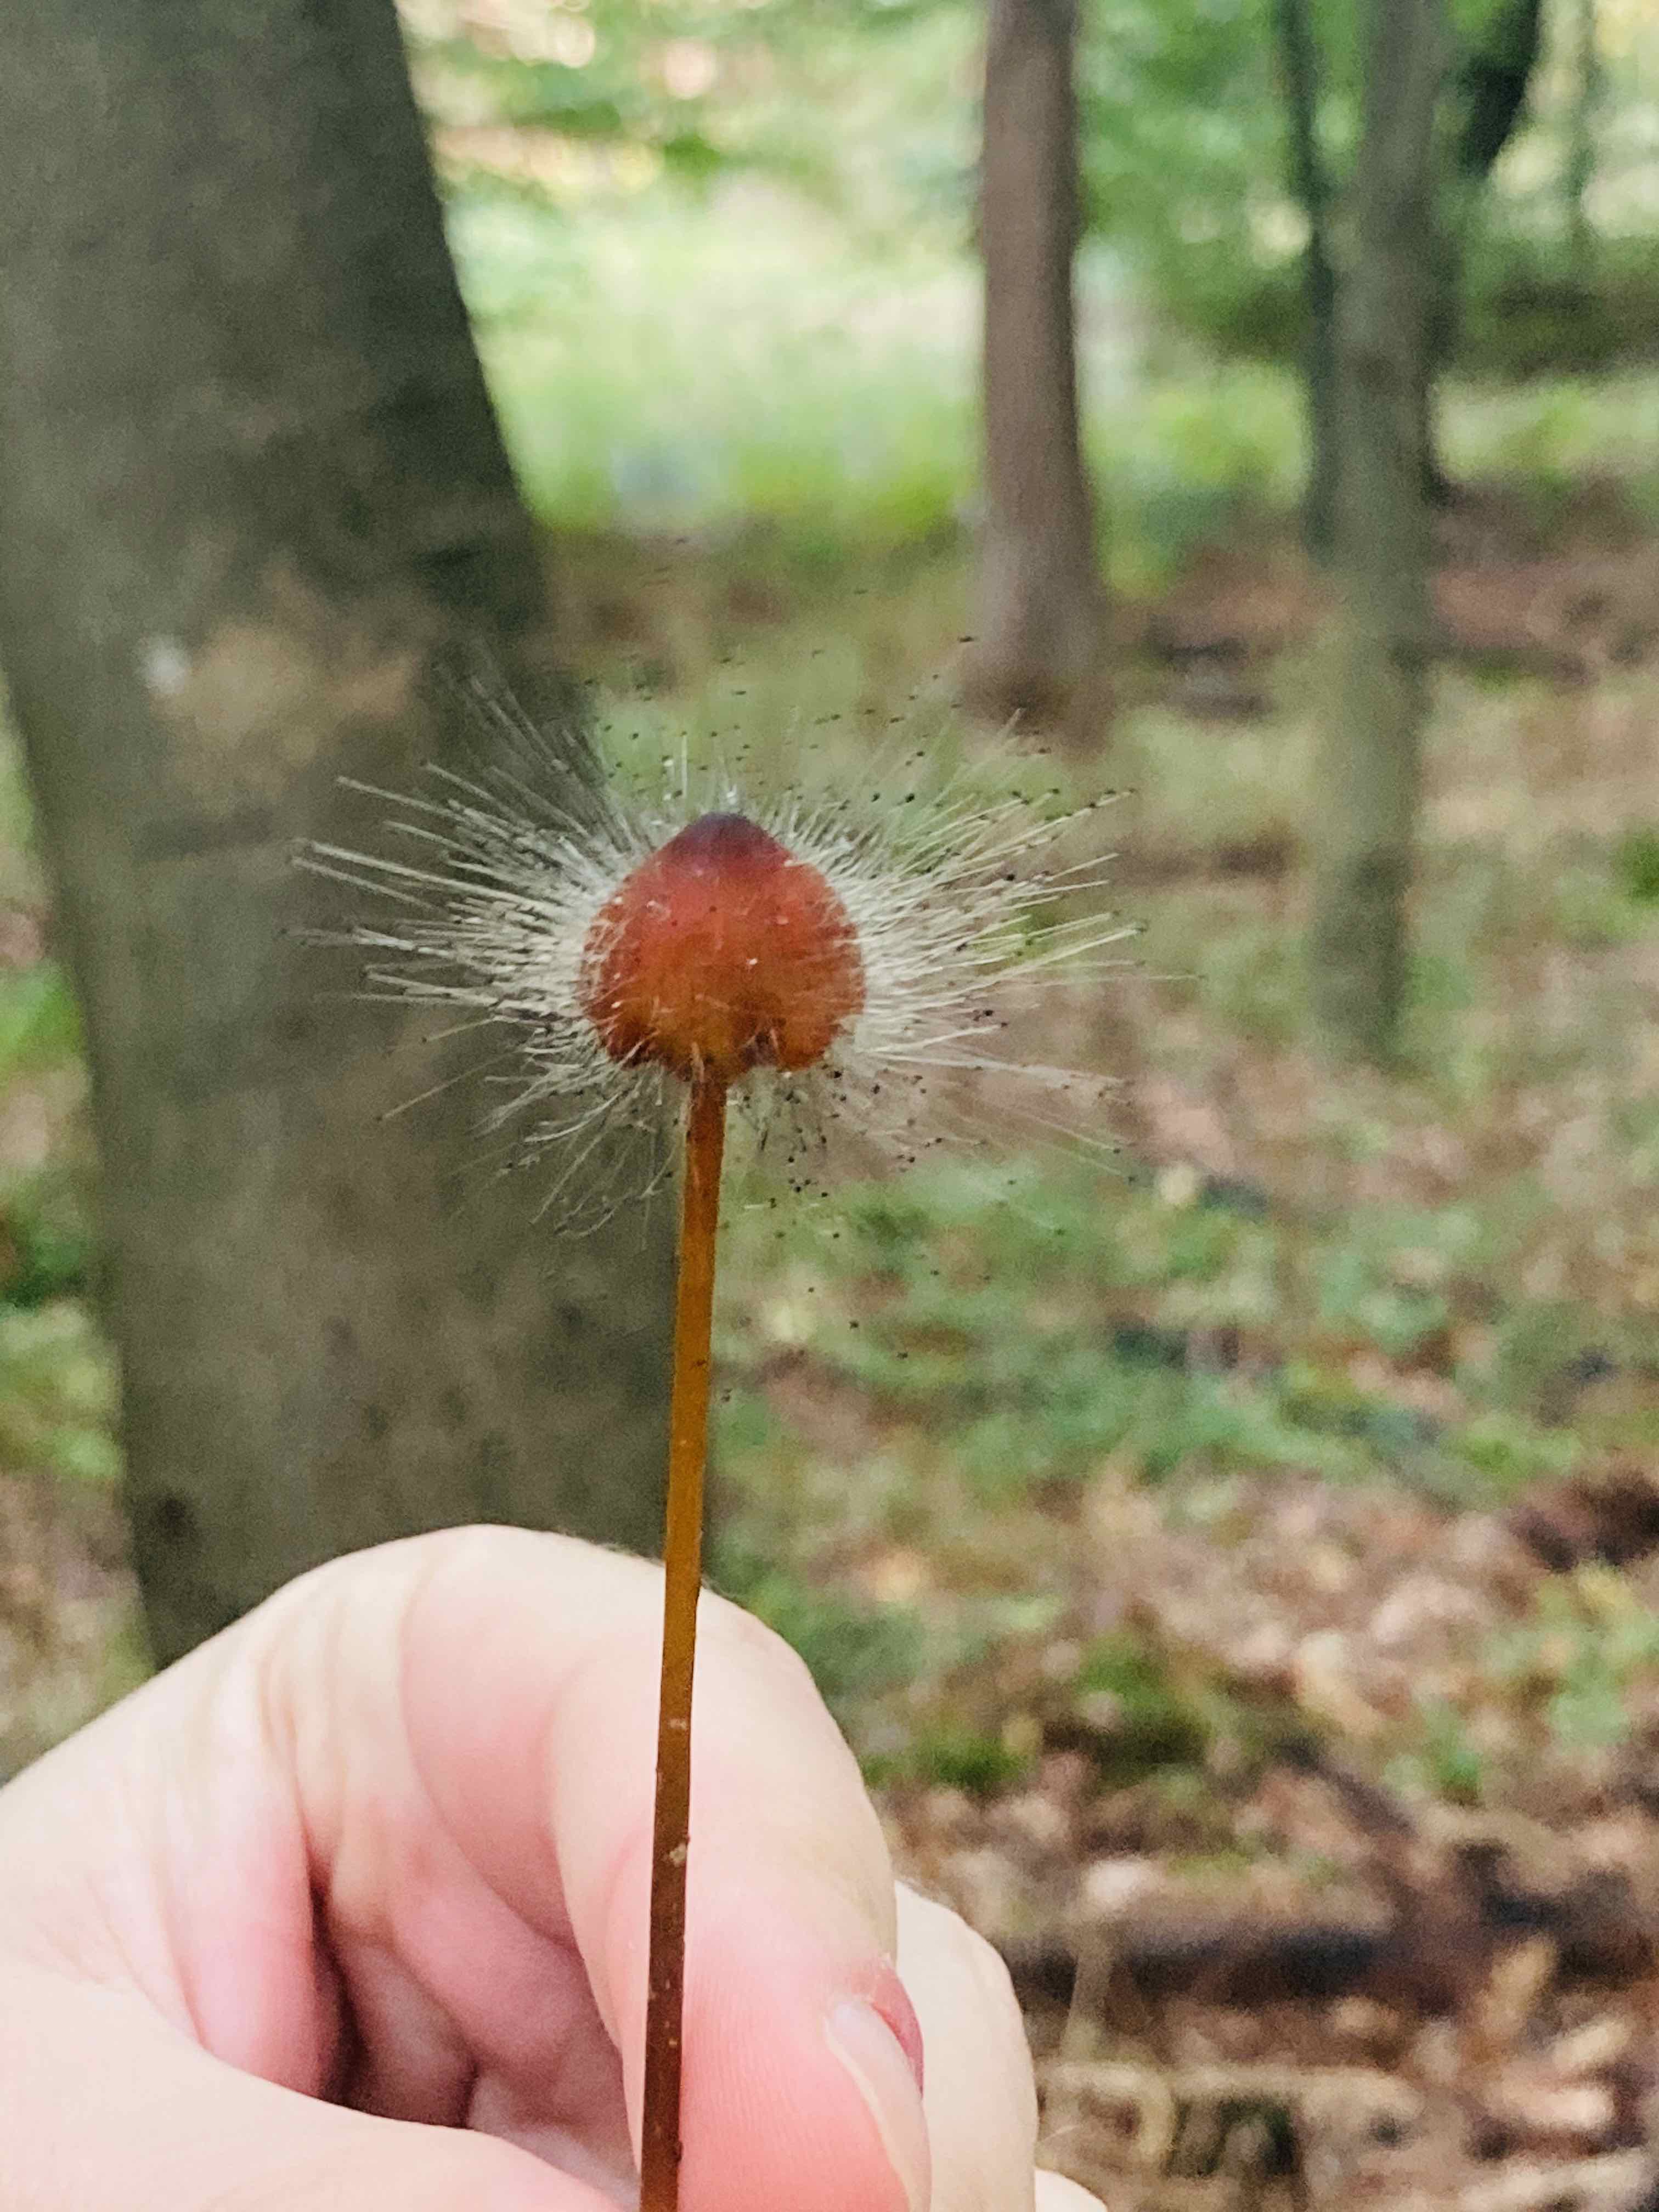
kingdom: Fungi
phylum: Mucoromycota
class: Mucoromycetes
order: Mucorales
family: Phycomycetaceae
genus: Spinellus
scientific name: Spinellus fusiger
